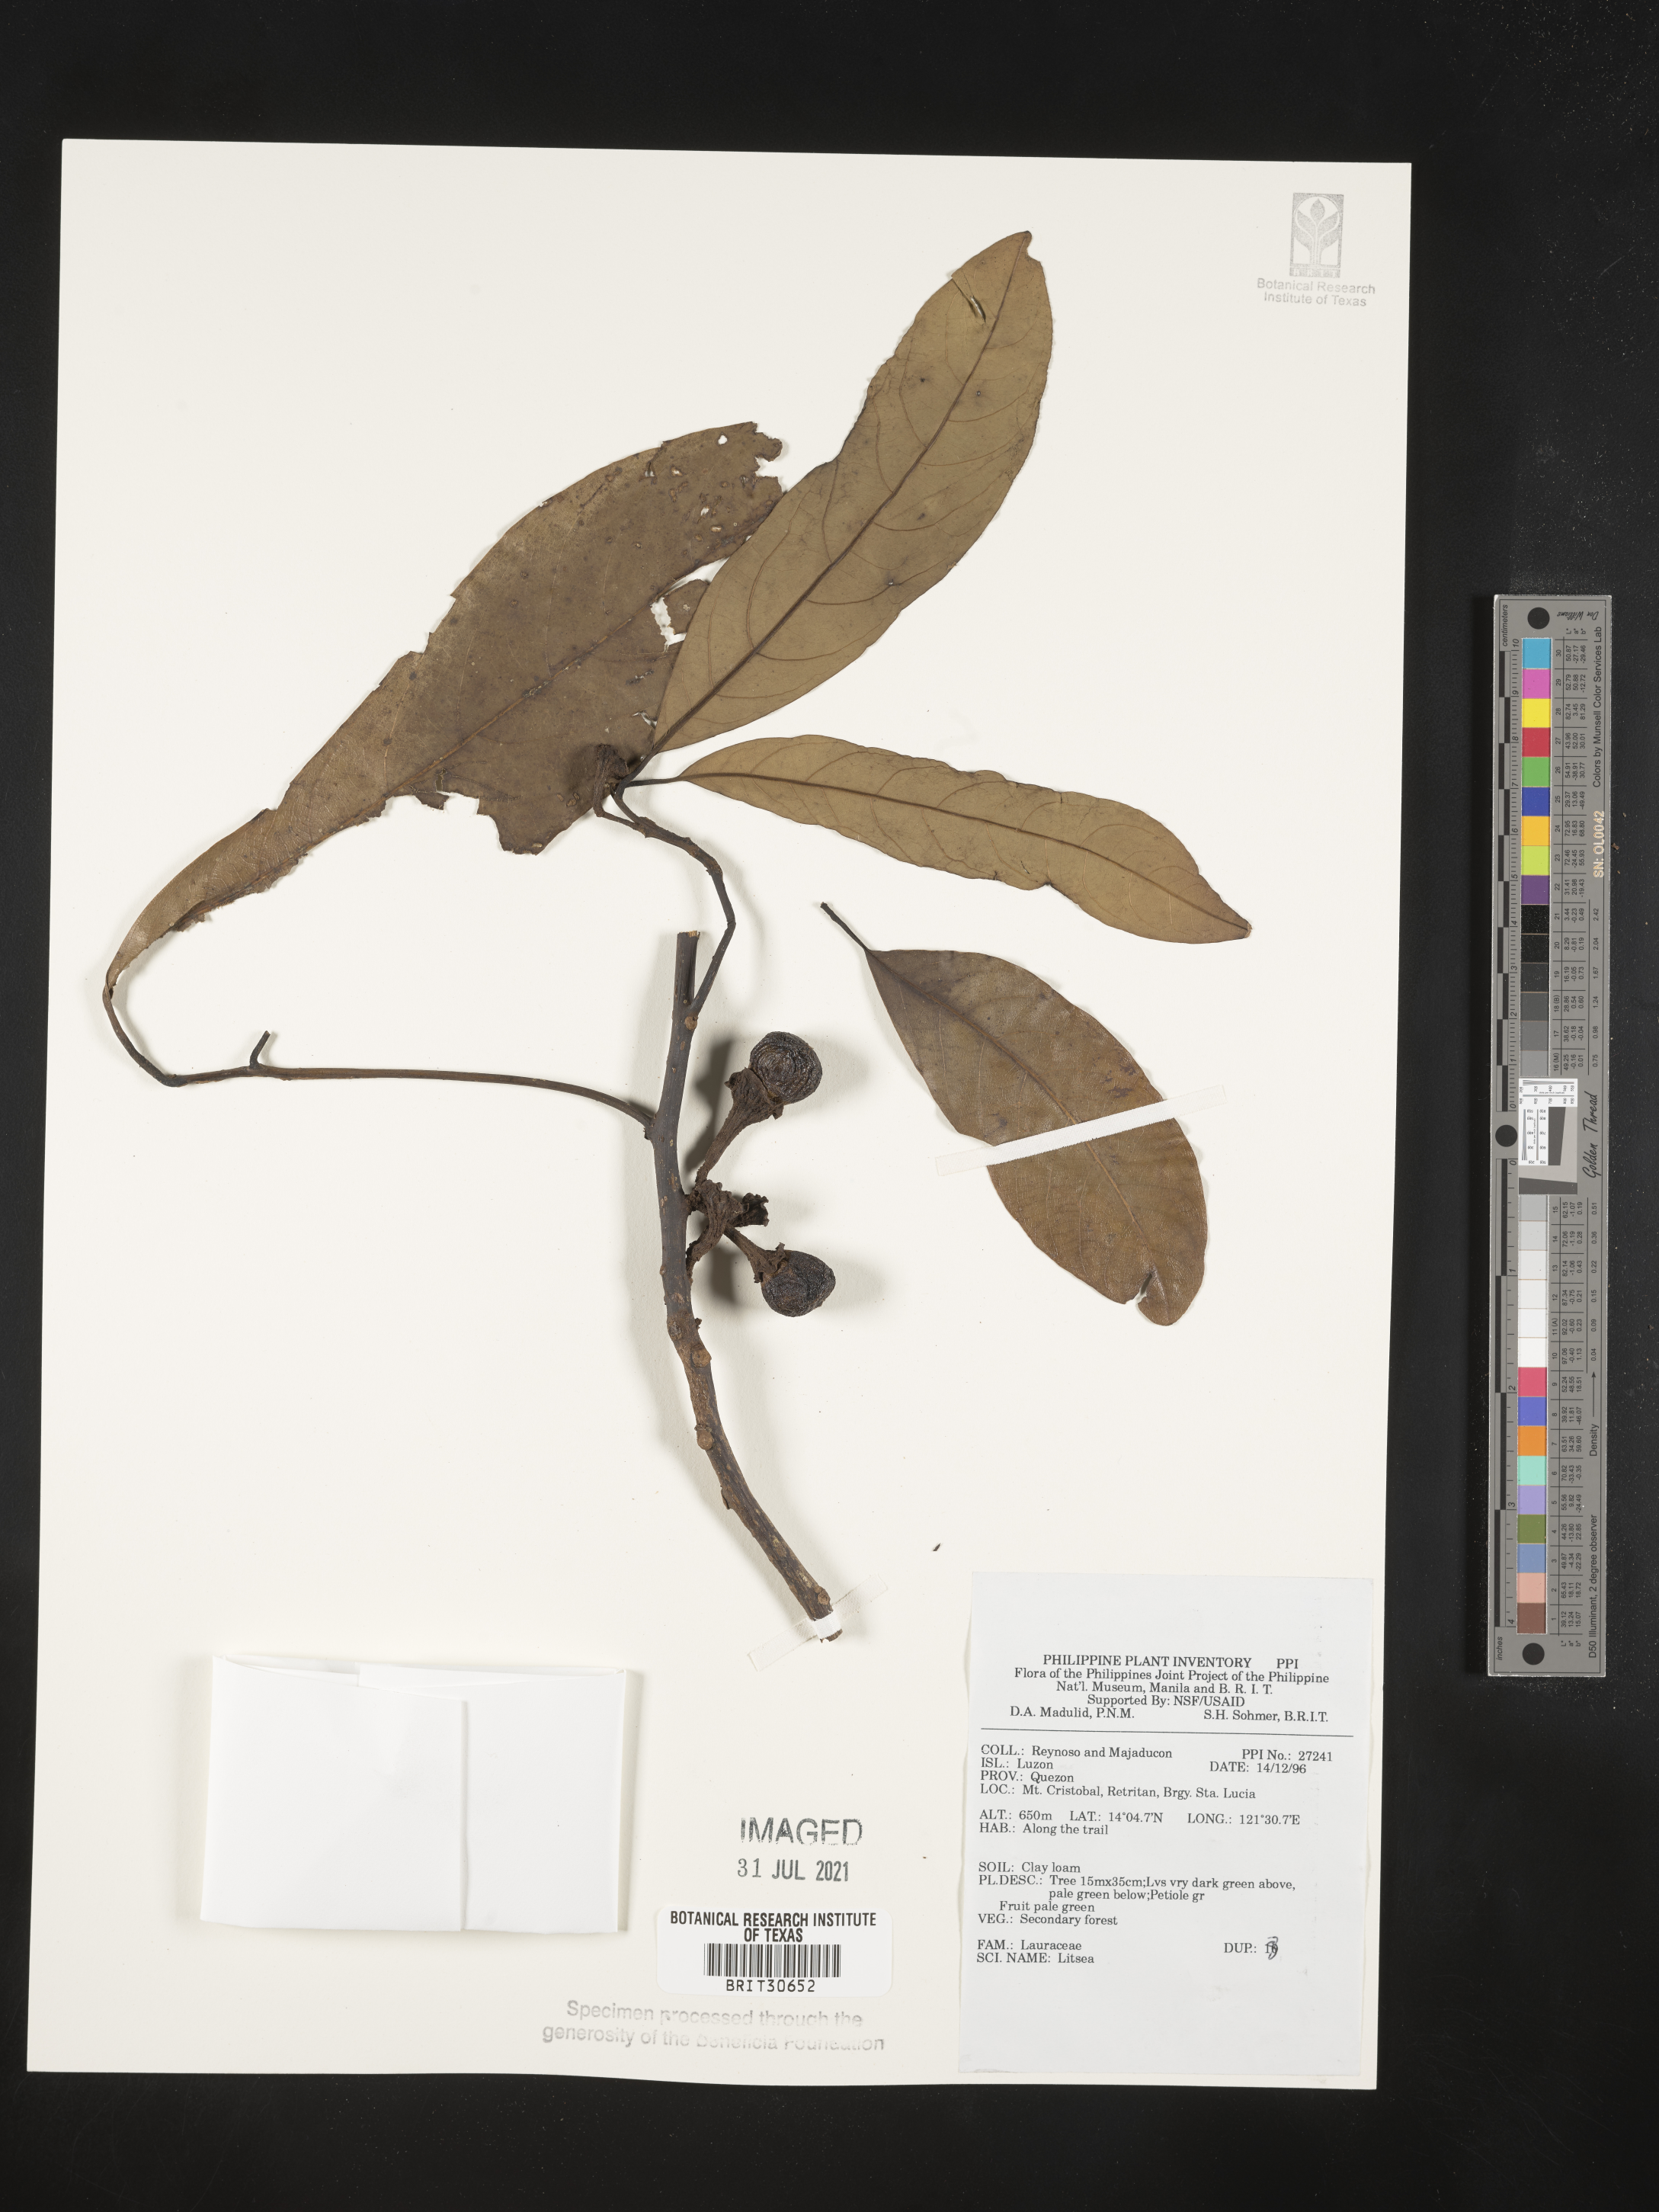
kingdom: Plantae
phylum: Tracheophyta
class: Magnoliopsida
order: Laurales
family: Lauraceae
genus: Litsea
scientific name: Litsea
